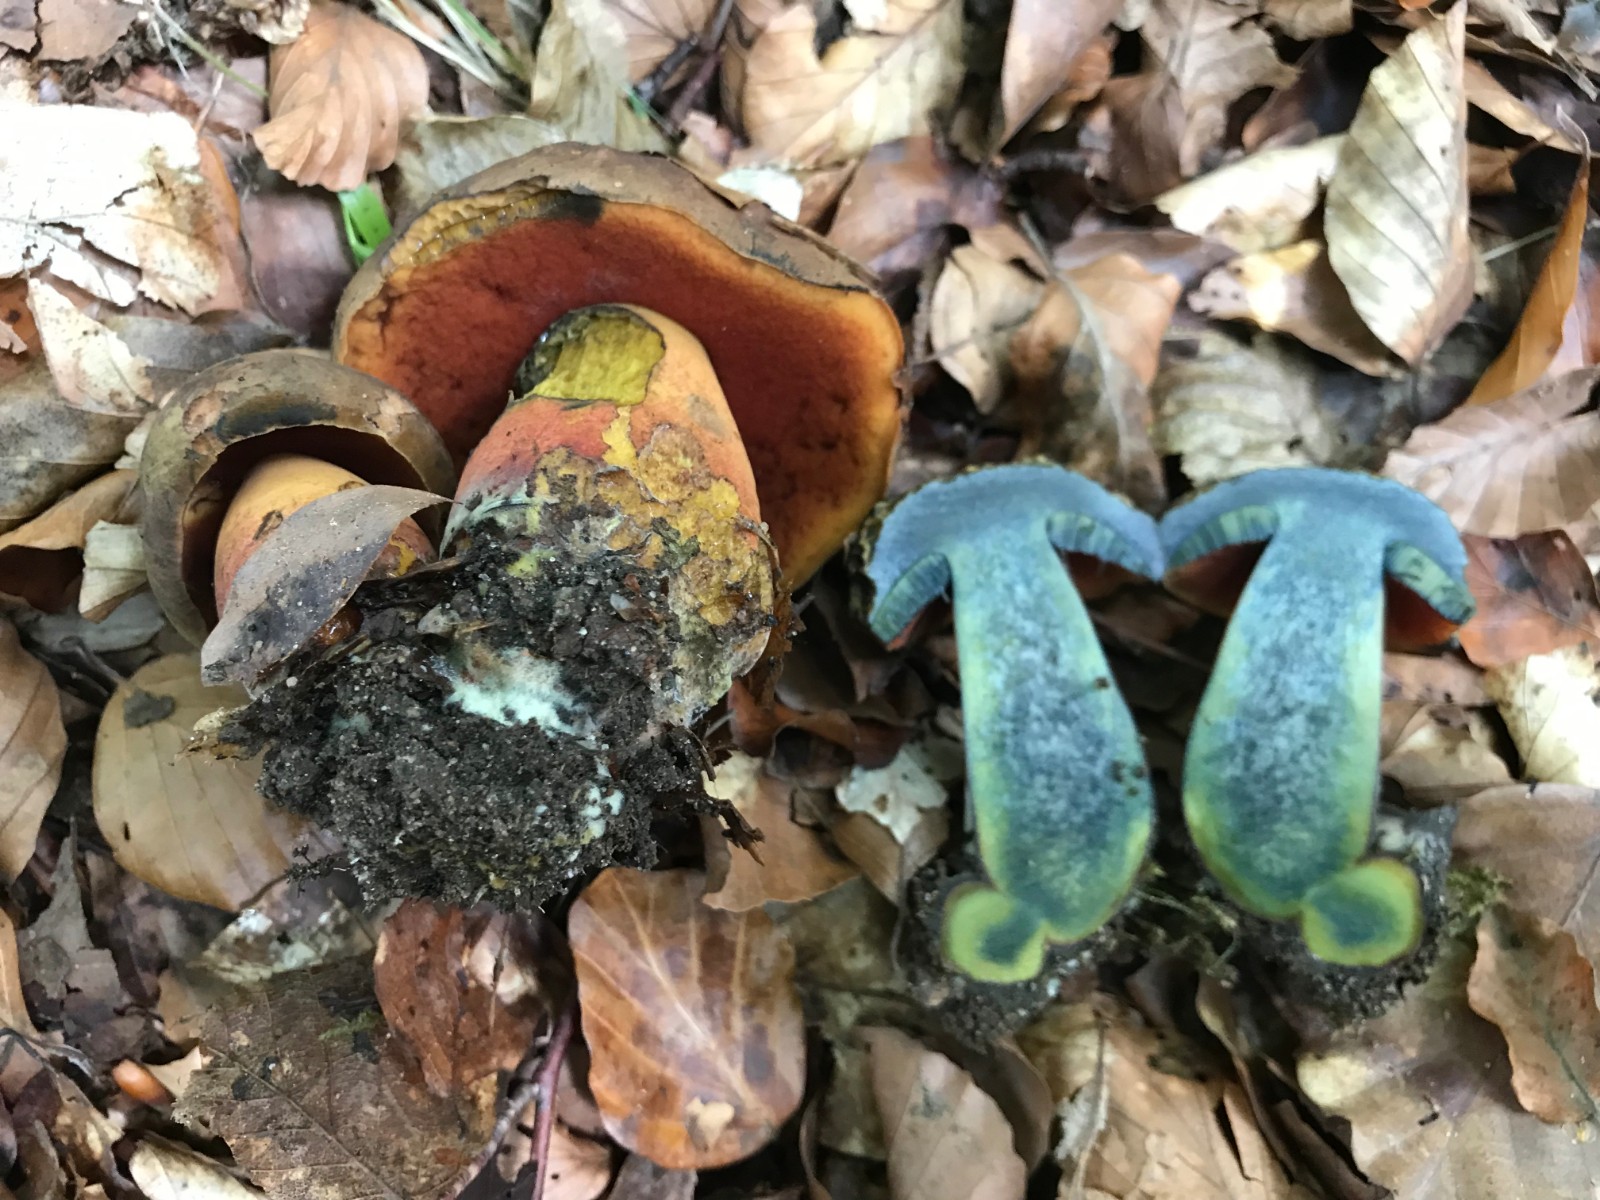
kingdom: Fungi
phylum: Basidiomycota
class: Agaricomycetes
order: Boletales
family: Boletaceae
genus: Neoboletus
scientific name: Neoboletus erythropus
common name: punktstokket indigorørhat
